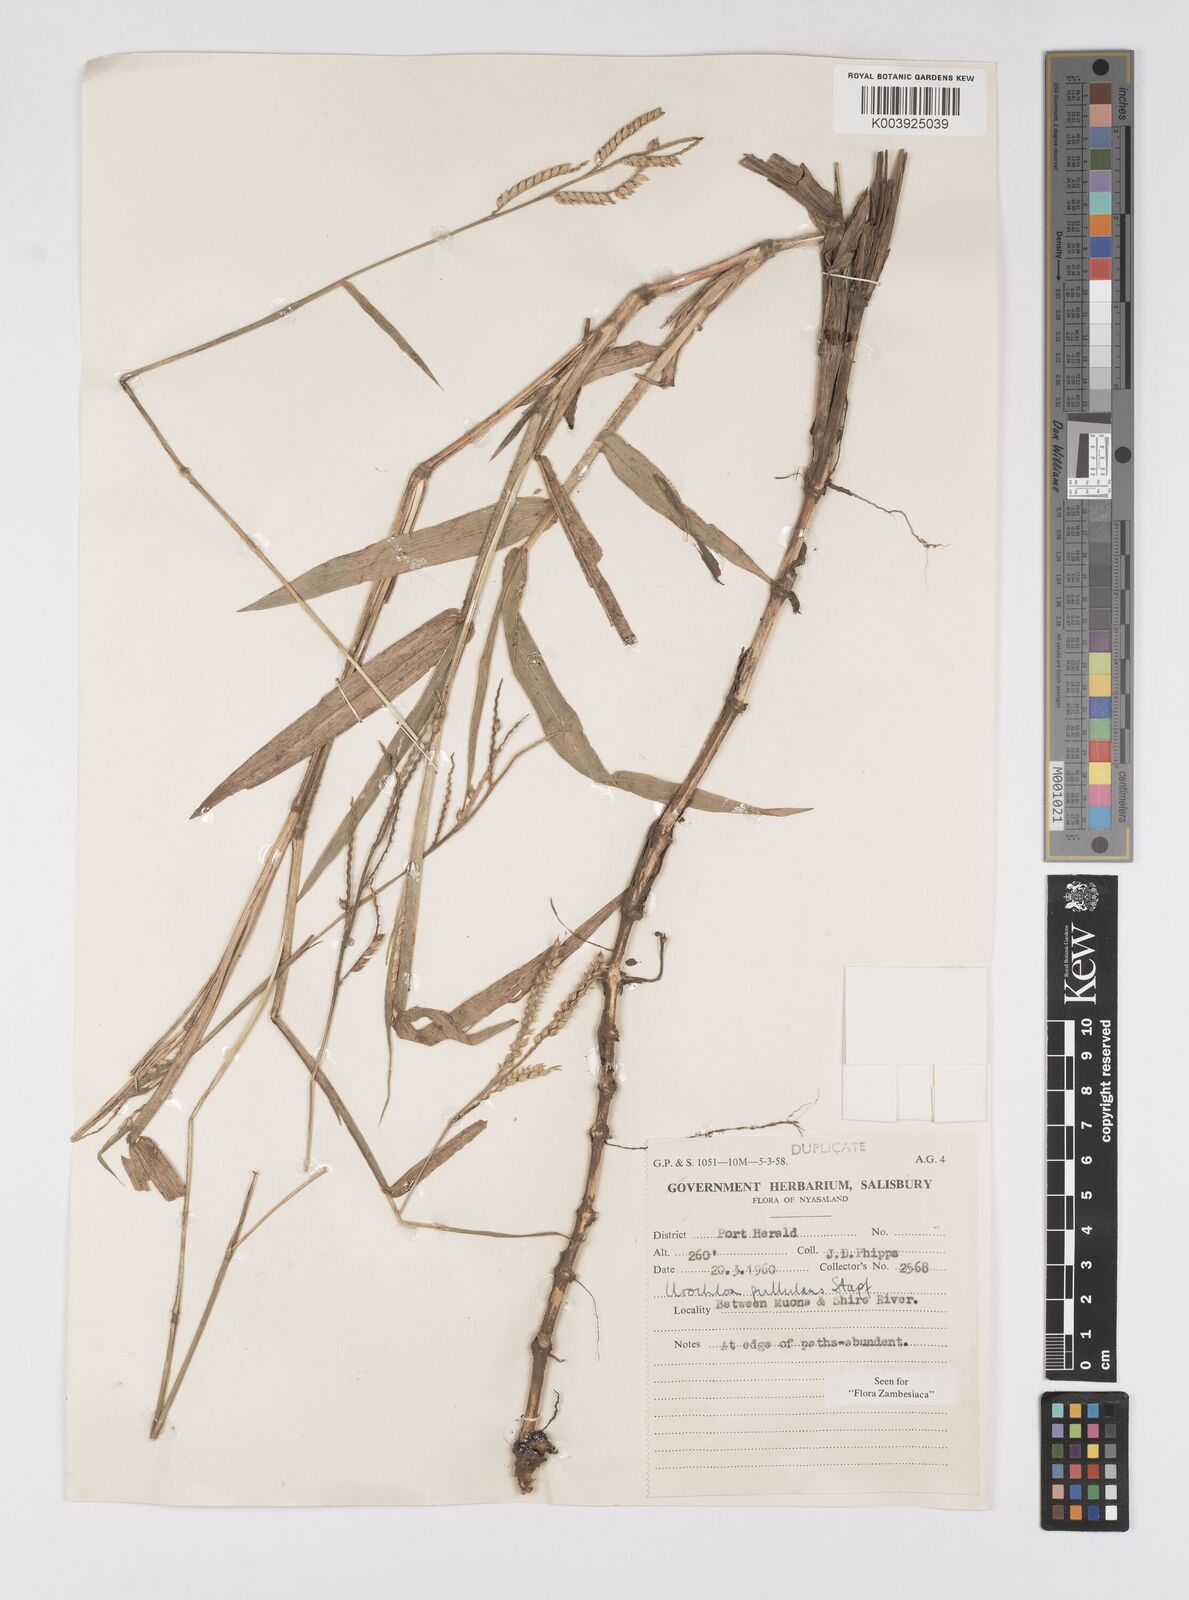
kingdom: Plantae
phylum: Tracheophyta
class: Liliopsida
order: Poales
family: Poaceae
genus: Urochloa
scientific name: Urochloa trichopus
